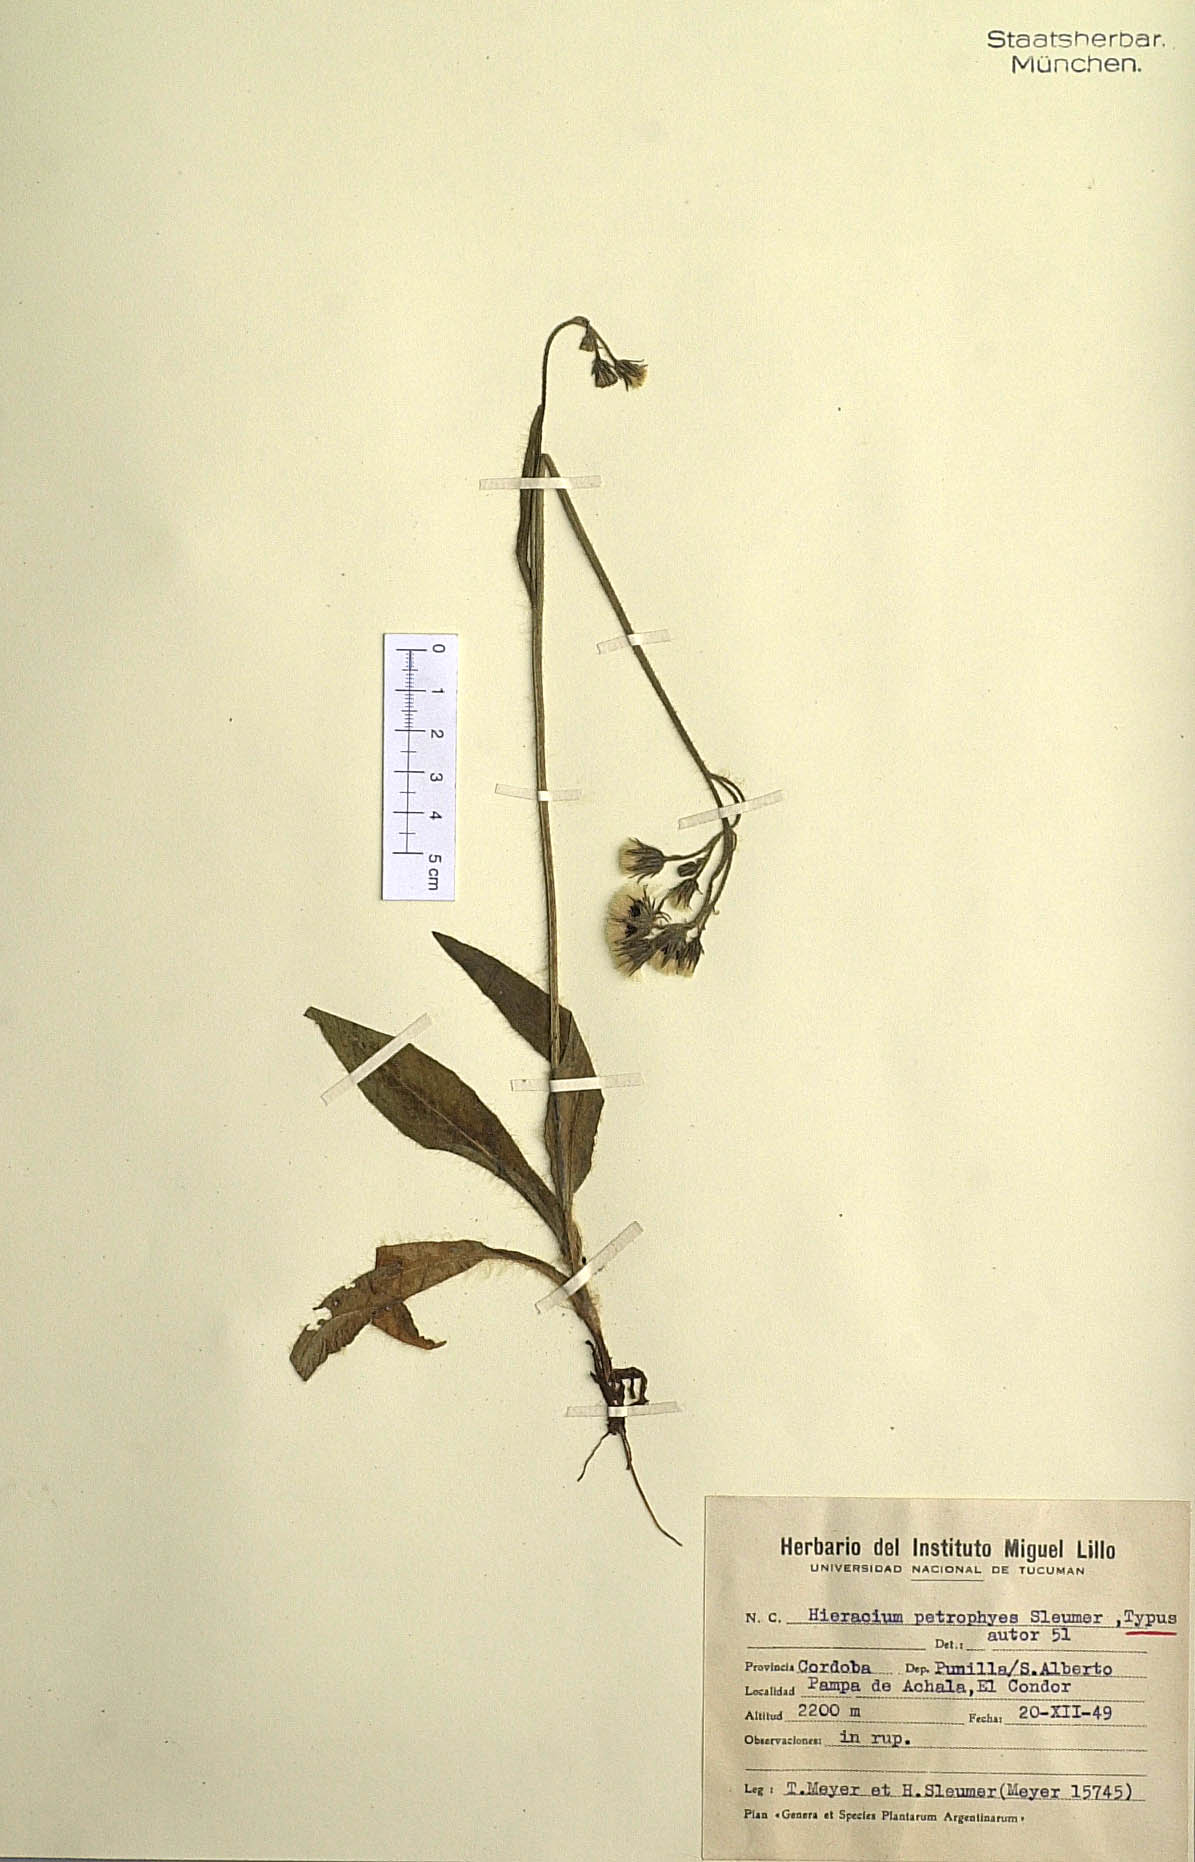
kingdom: Plantae
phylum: Tracheophyta
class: Magnoliopsida
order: Asterales
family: Asteraceae
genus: Hieracium
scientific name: Hieracium criniceps
